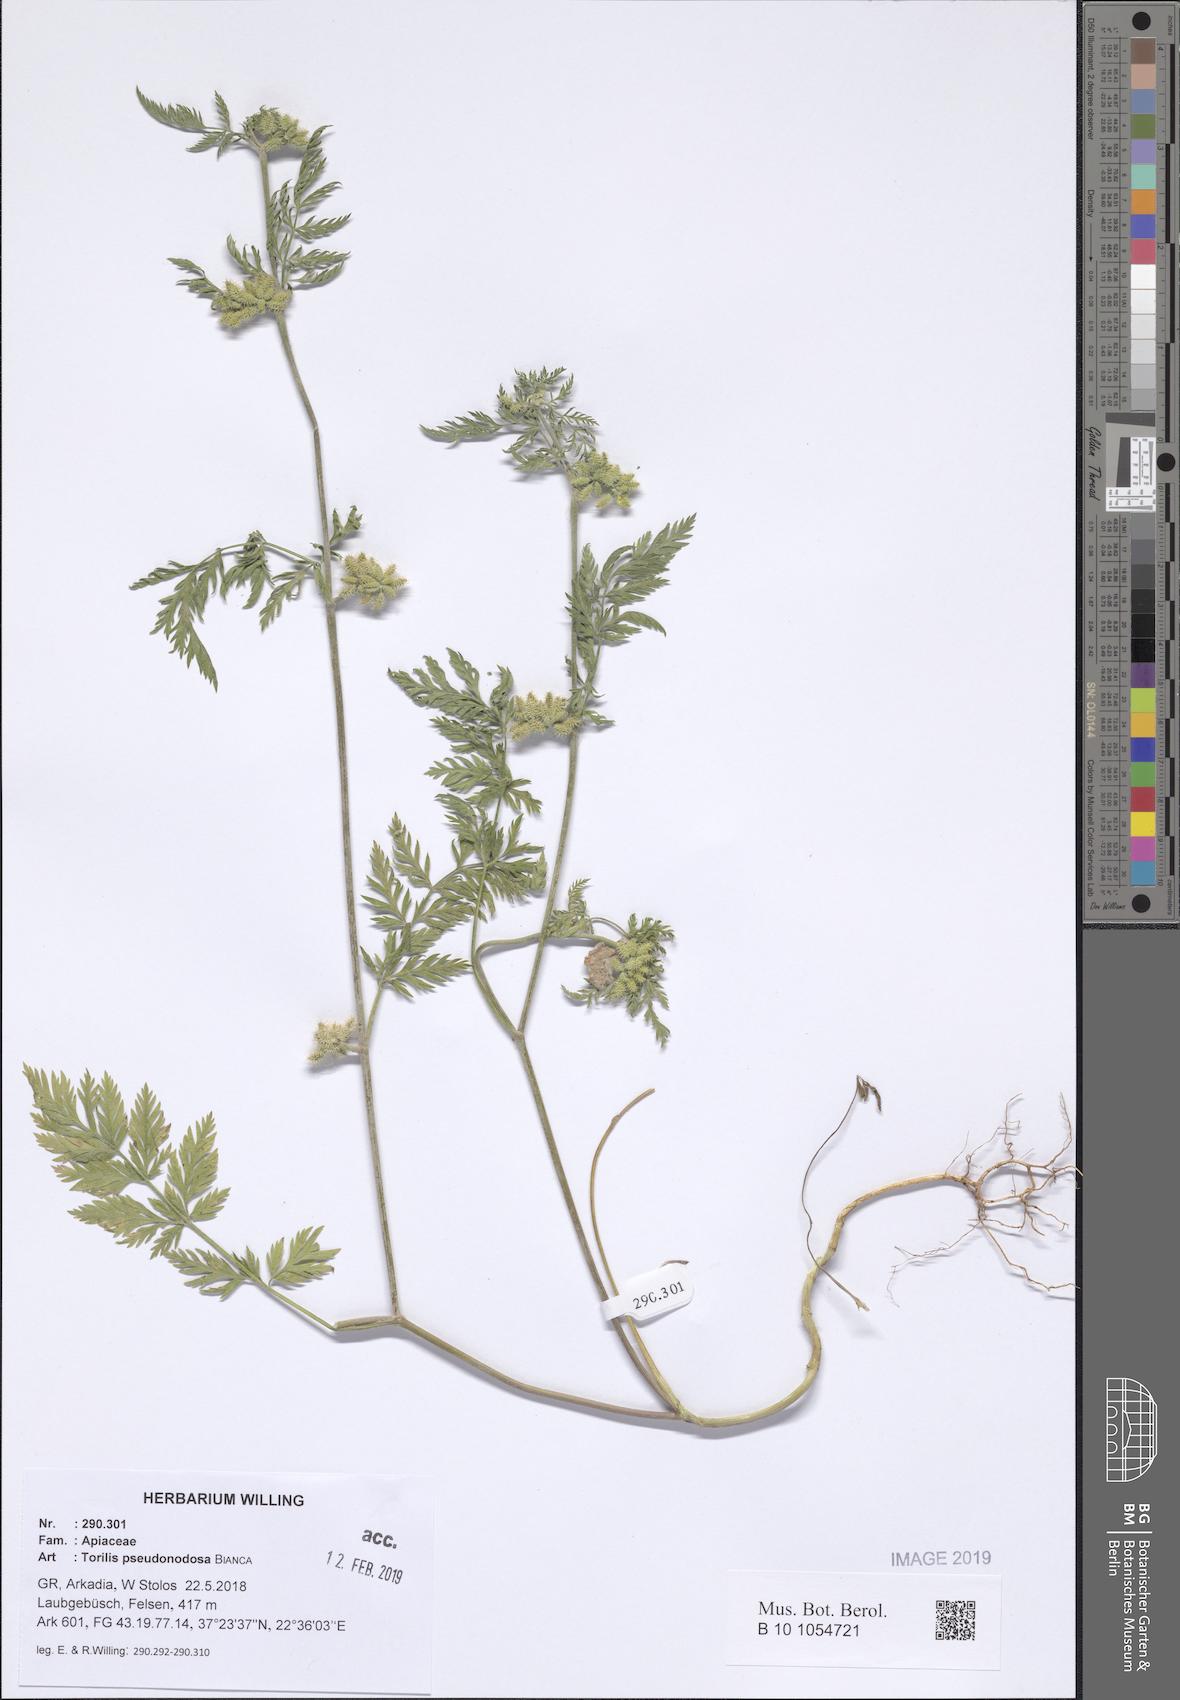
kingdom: Plantae
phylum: Tracheophyta
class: Magnoliopsida
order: Apiales
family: Apiaceae
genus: Torilis
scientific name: Torilis pseudonodosa
